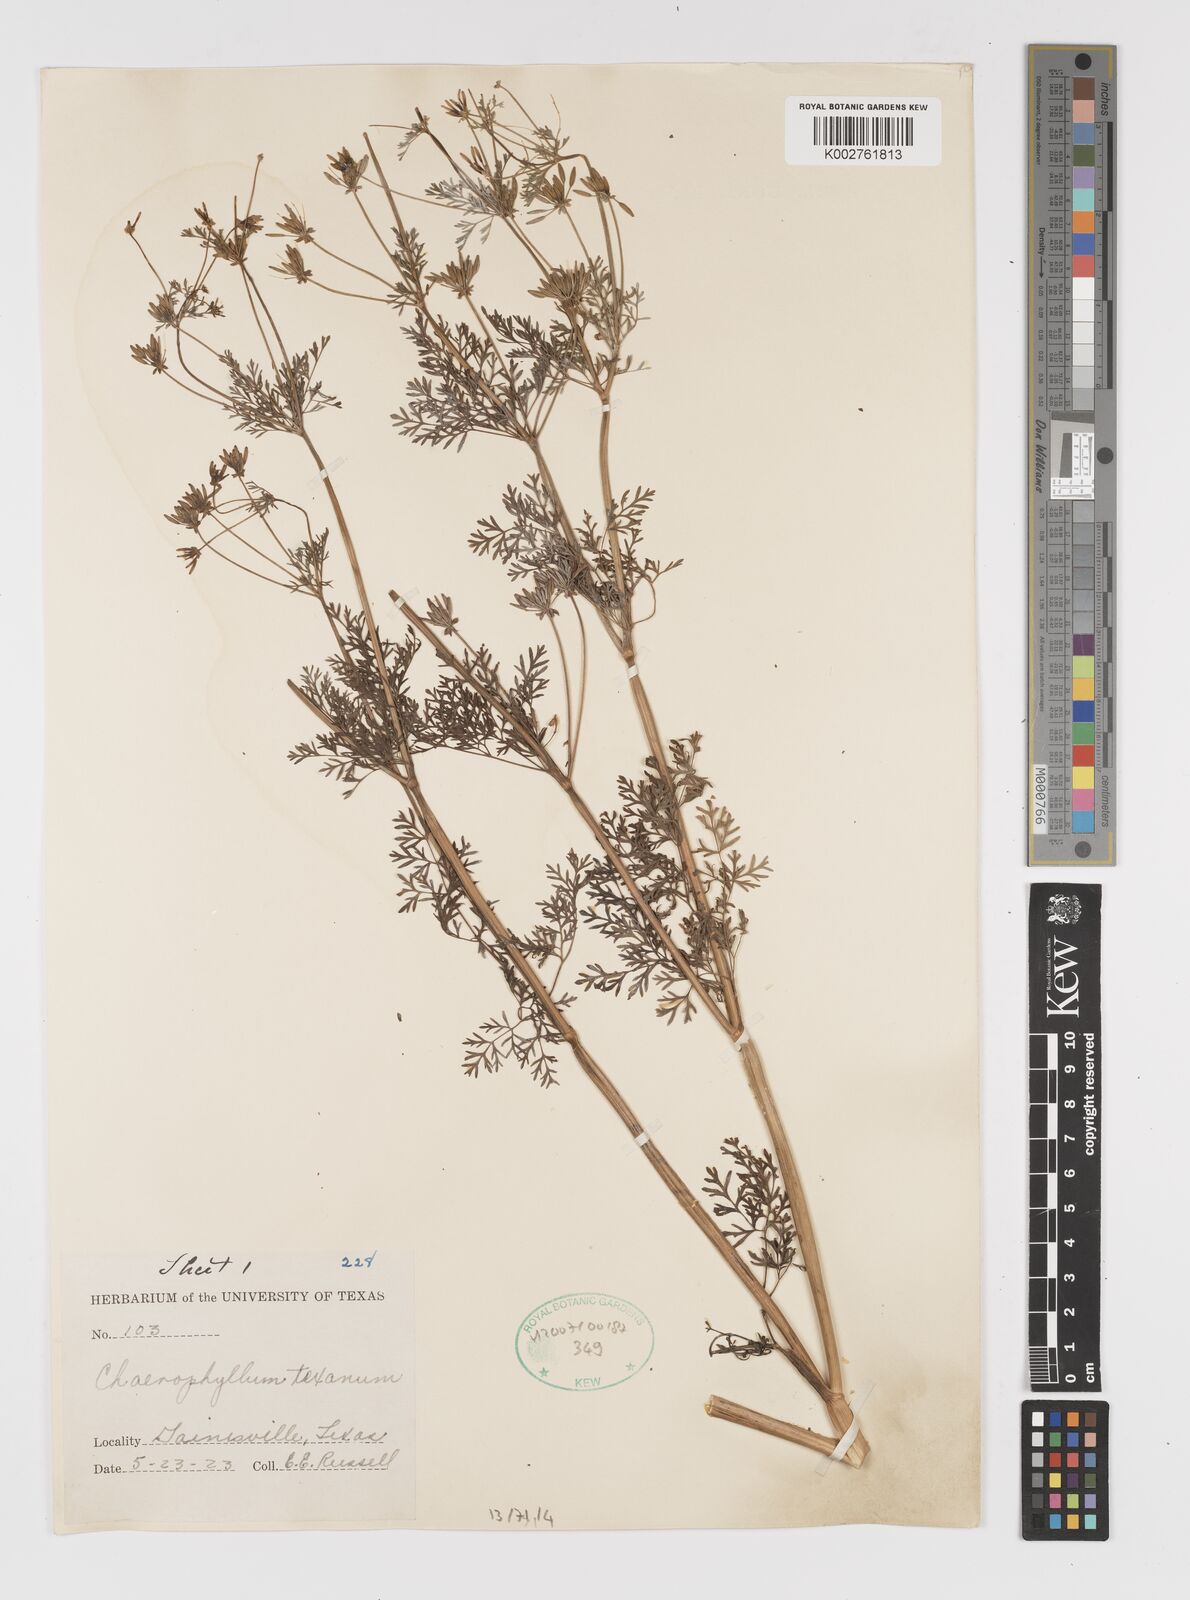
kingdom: Plantae
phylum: Tracheophyta
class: Magnoliopsida
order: Apiales
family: Apiaceae
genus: Chaerophyllum
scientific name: Chaerophyllum tainturieri
